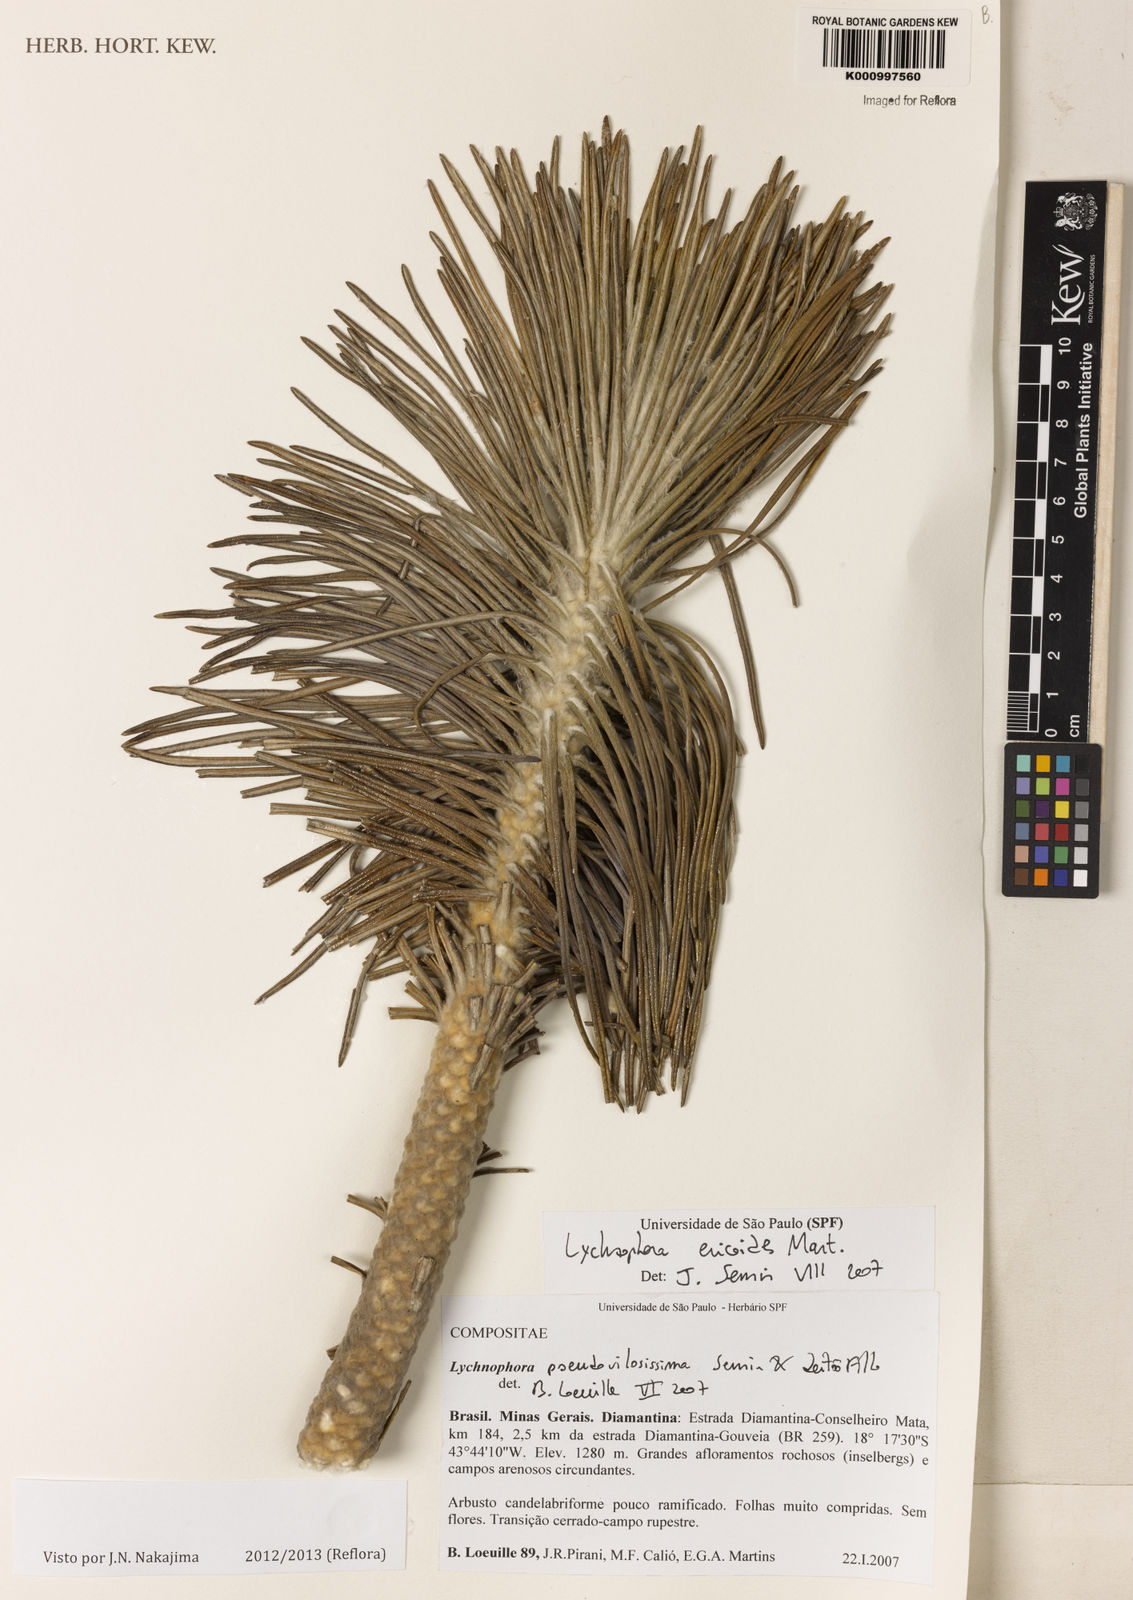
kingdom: Plantae
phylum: Tracheophyta
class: Magnoliopsida
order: Asterales
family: Asteraceae
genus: Lychnophora
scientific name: Lychnophora
